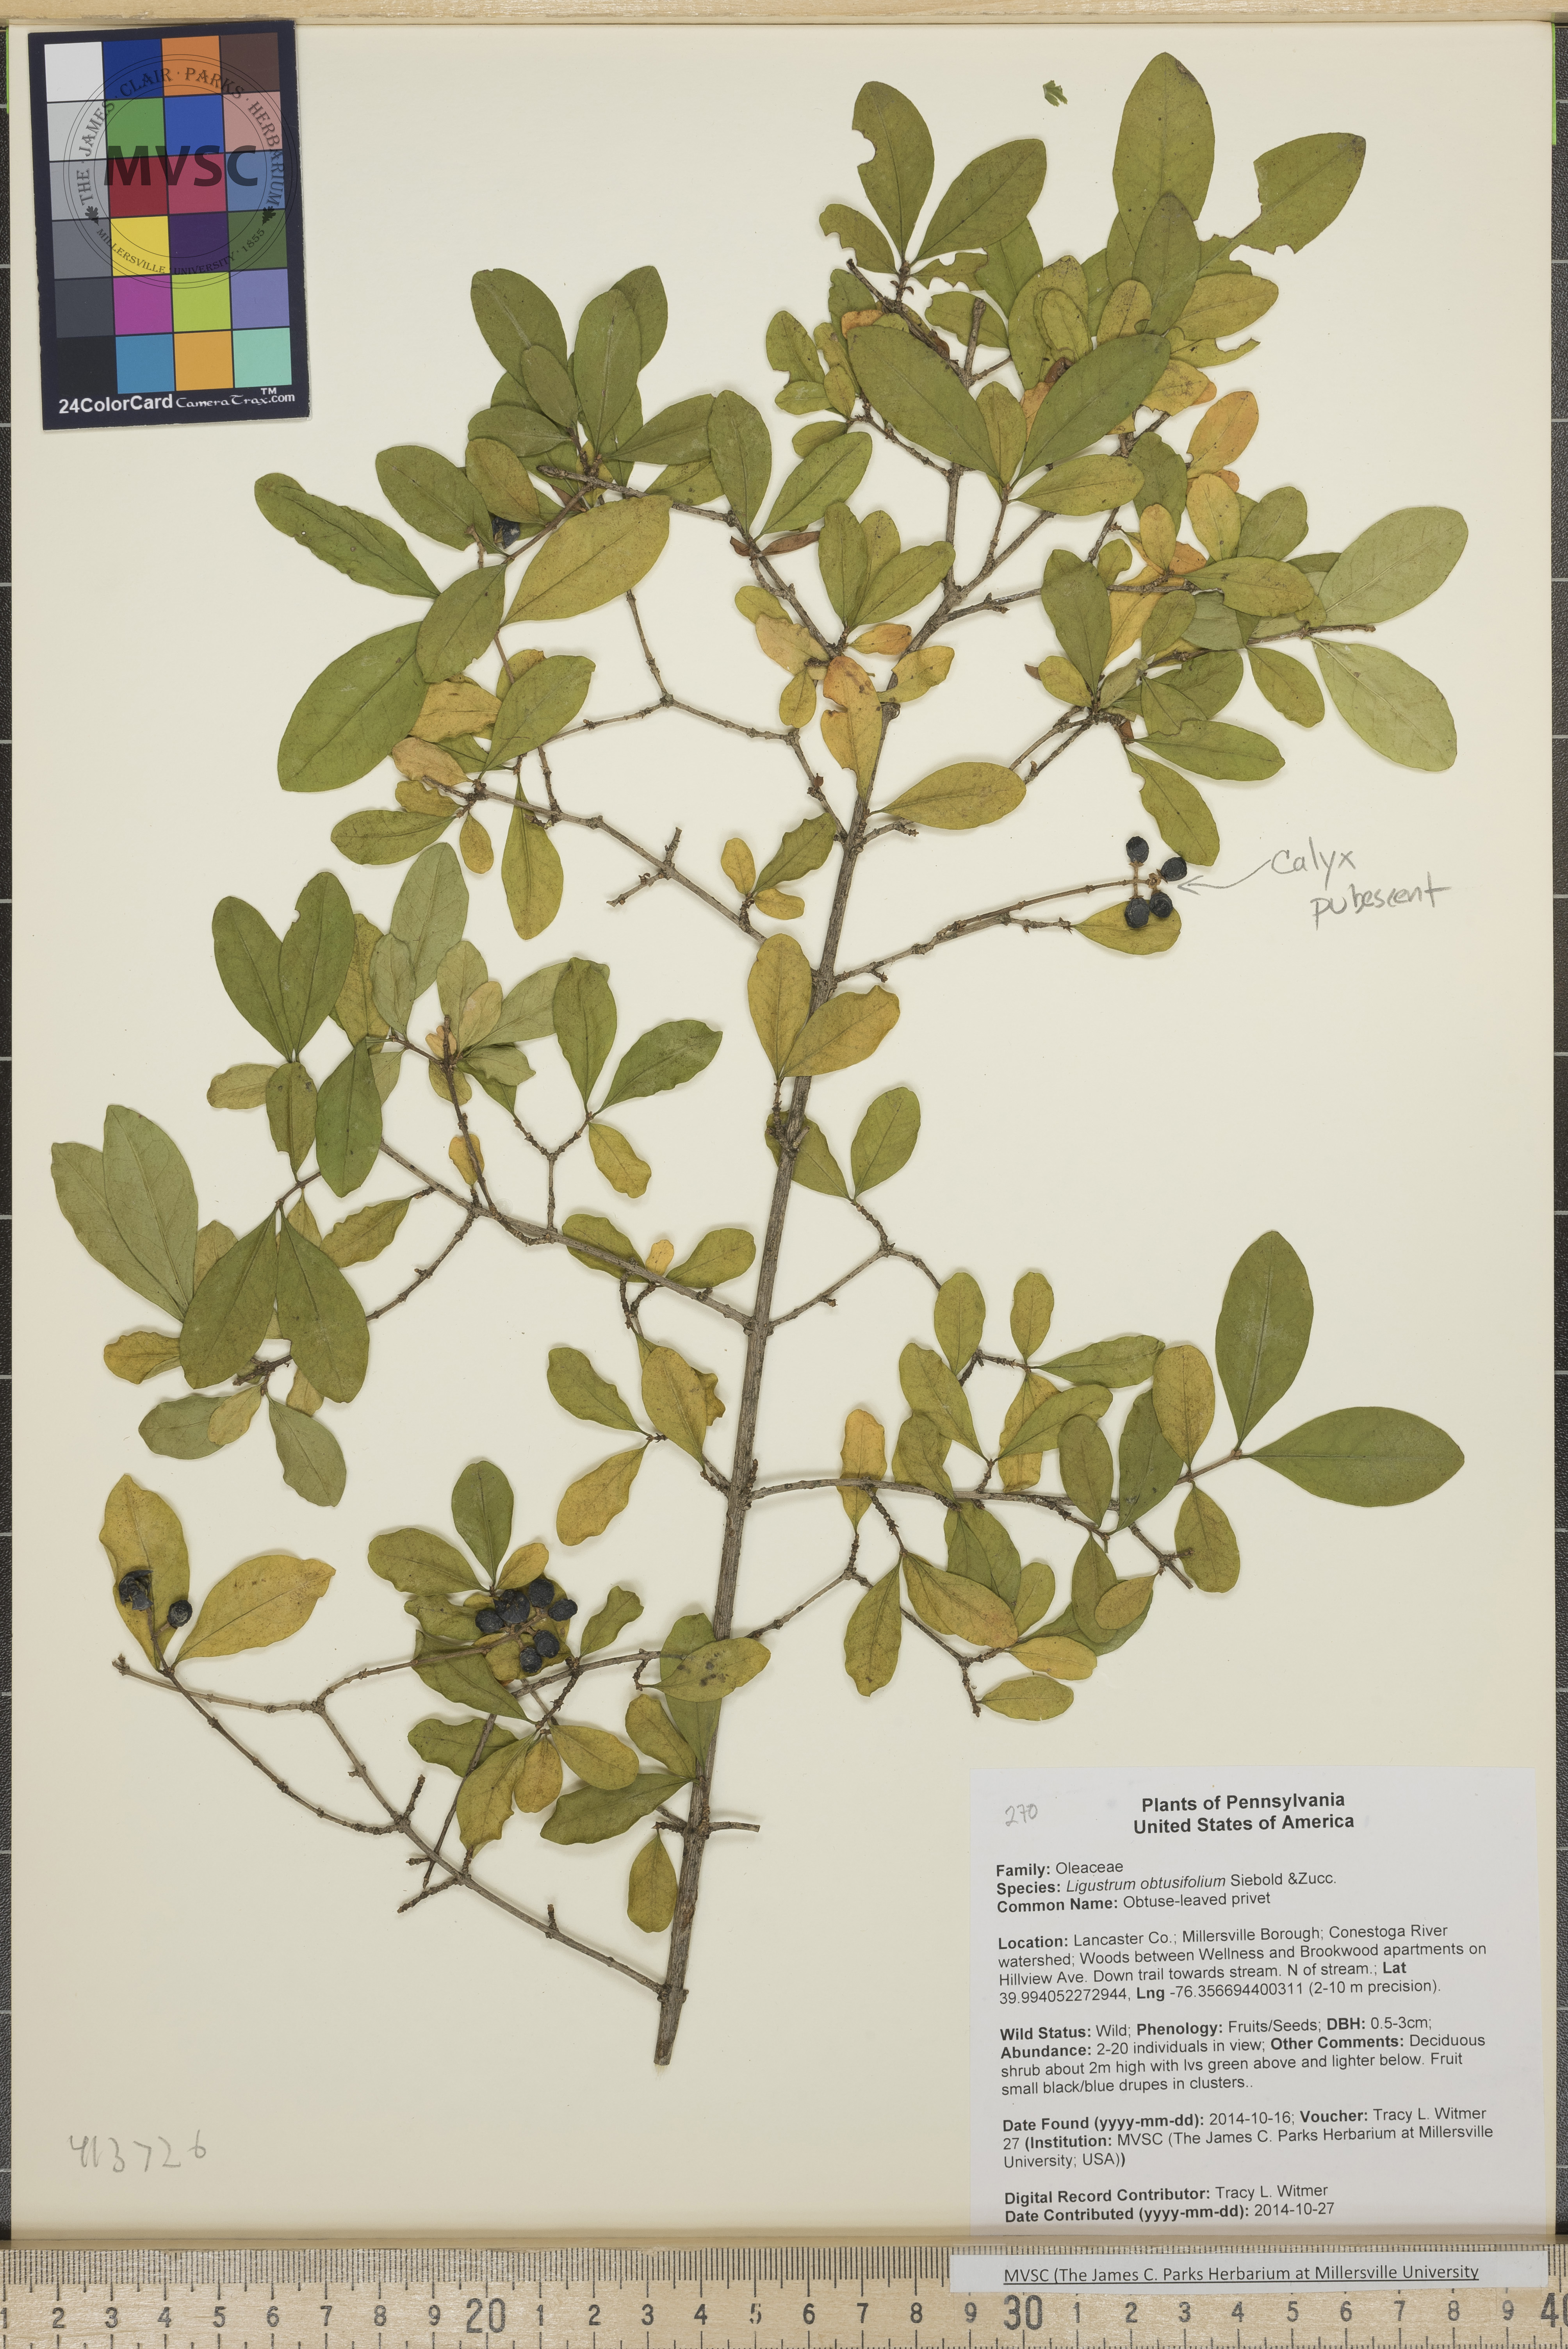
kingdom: Plantae
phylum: Tracheophyta
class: Magnoliopsida
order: Lamiales
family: Oleaceae
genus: Ligustrum
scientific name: Ligustrum obtusifolium
